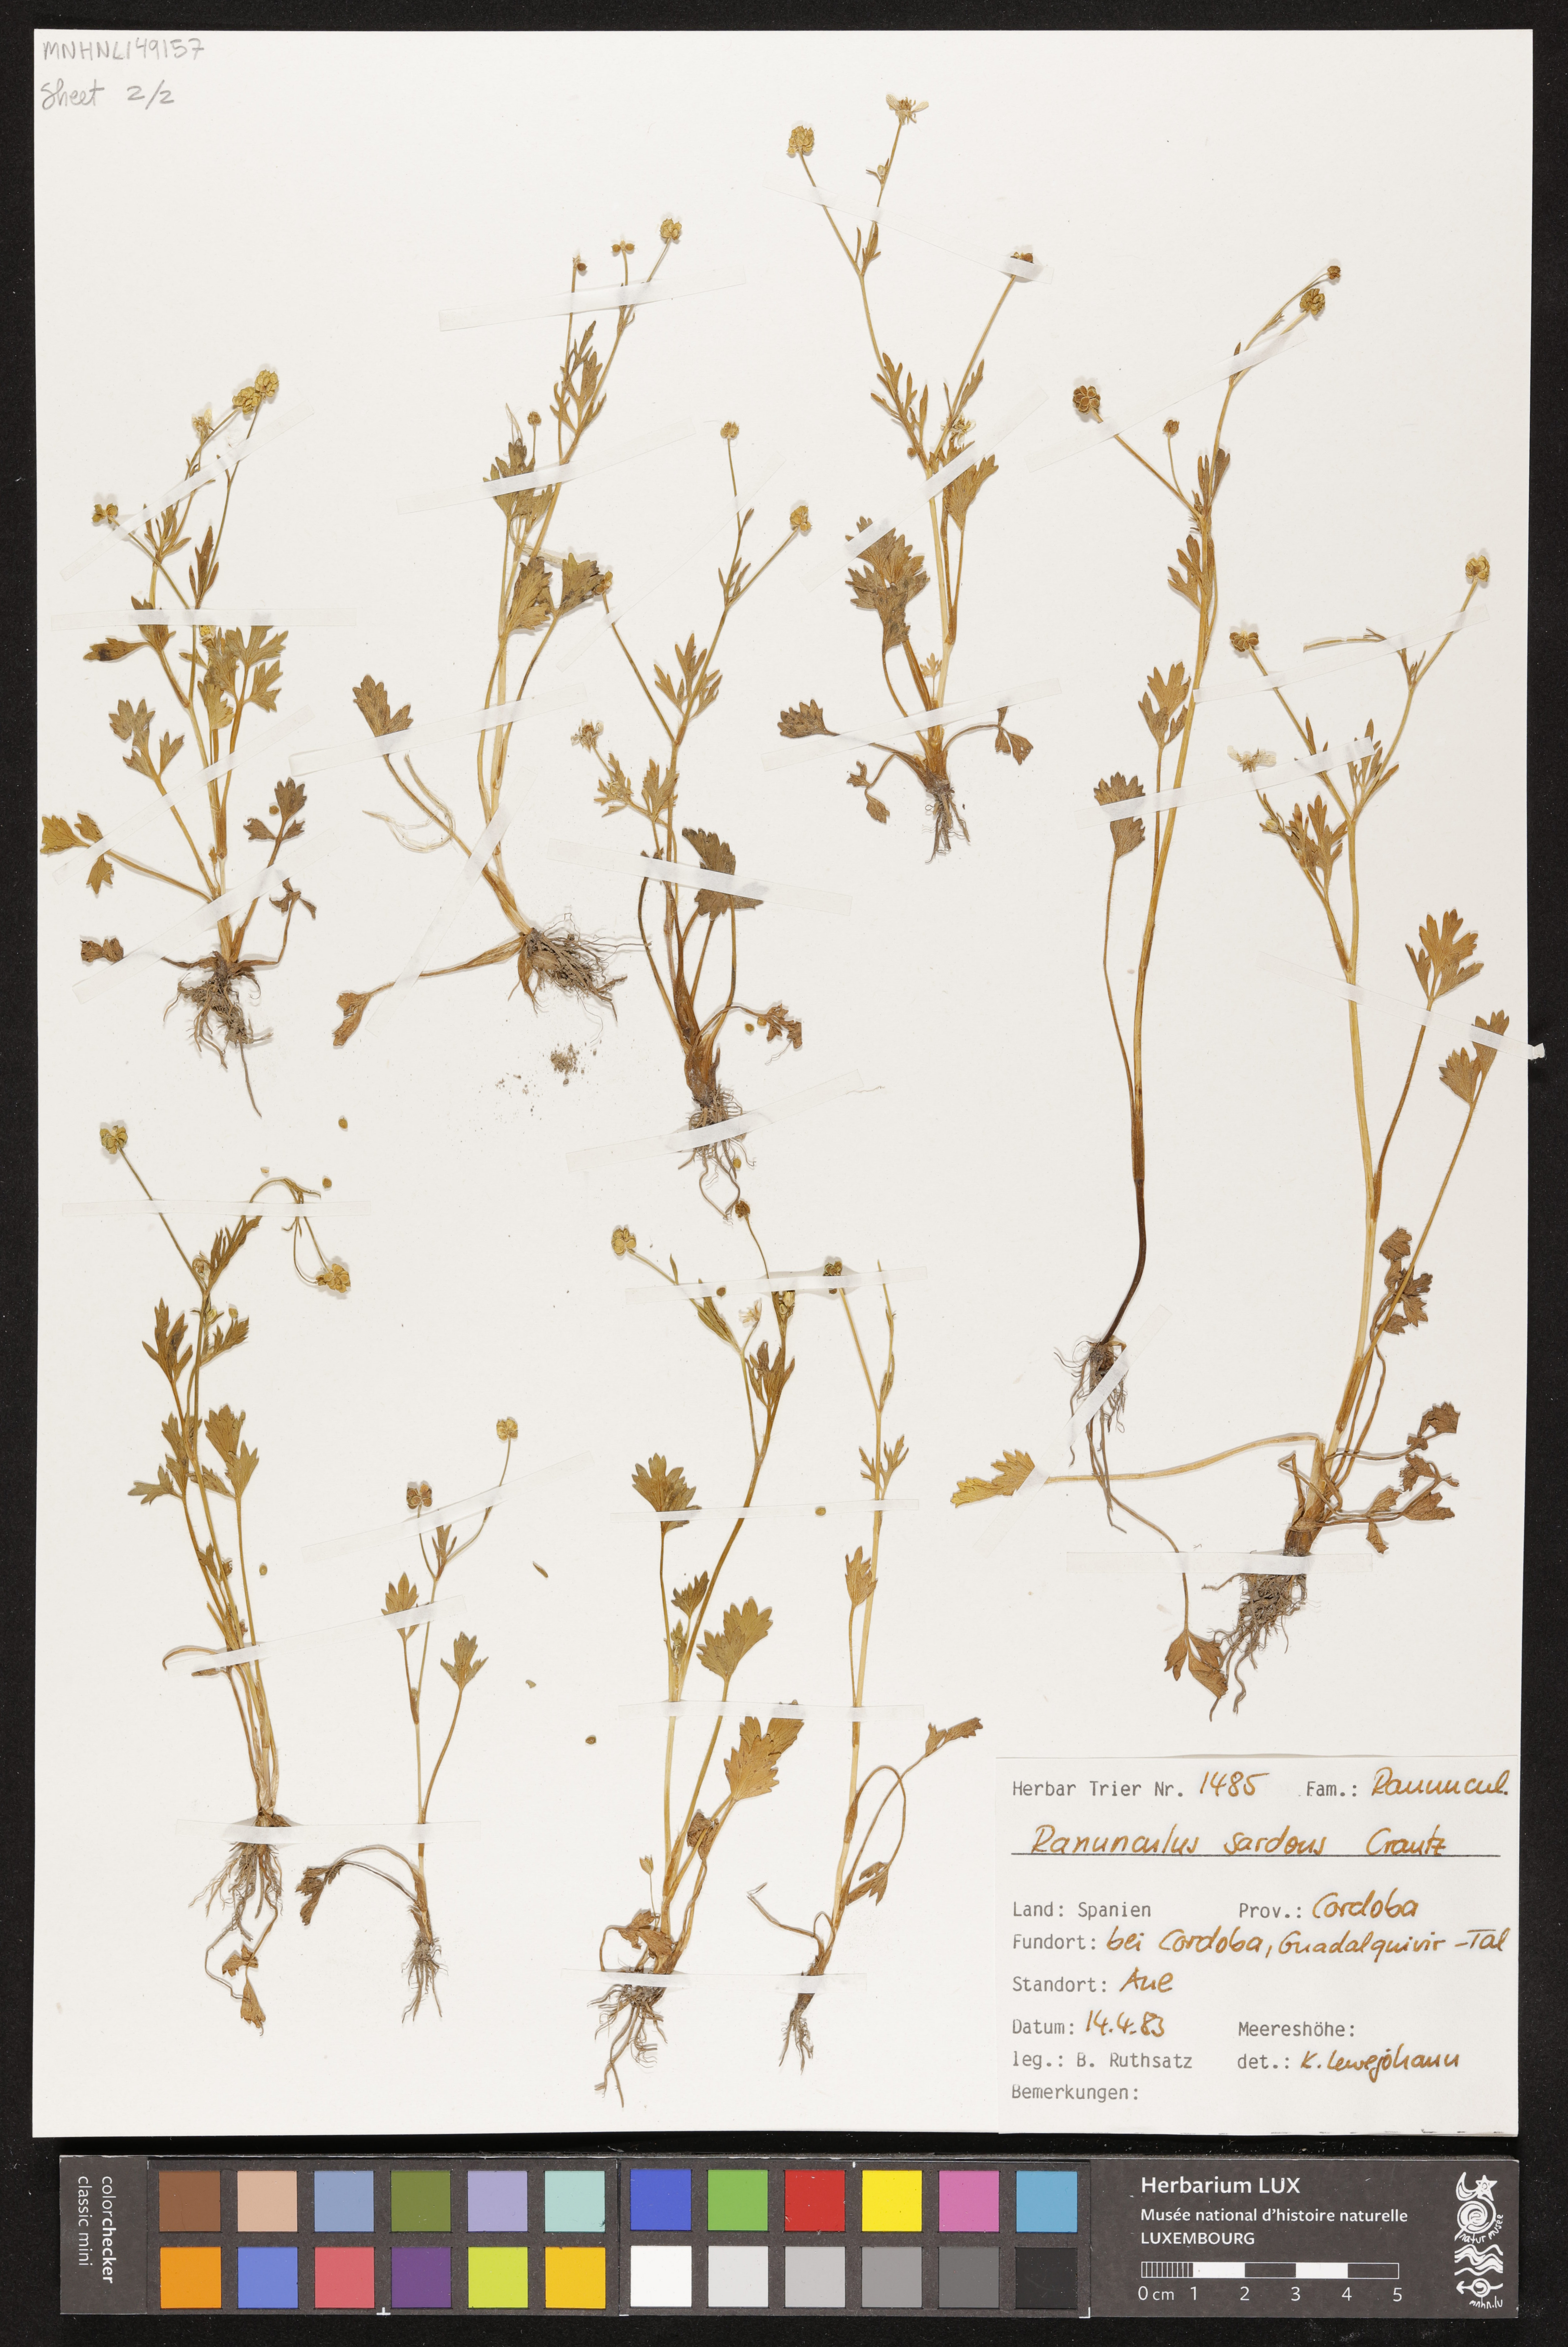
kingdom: Plantae
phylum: Tracheophyta
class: Magnoliopsida
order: Ranunculales
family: Ranunculaceae
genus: Ranunculus
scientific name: Ranunculus sardous
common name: Hairy buttercup
